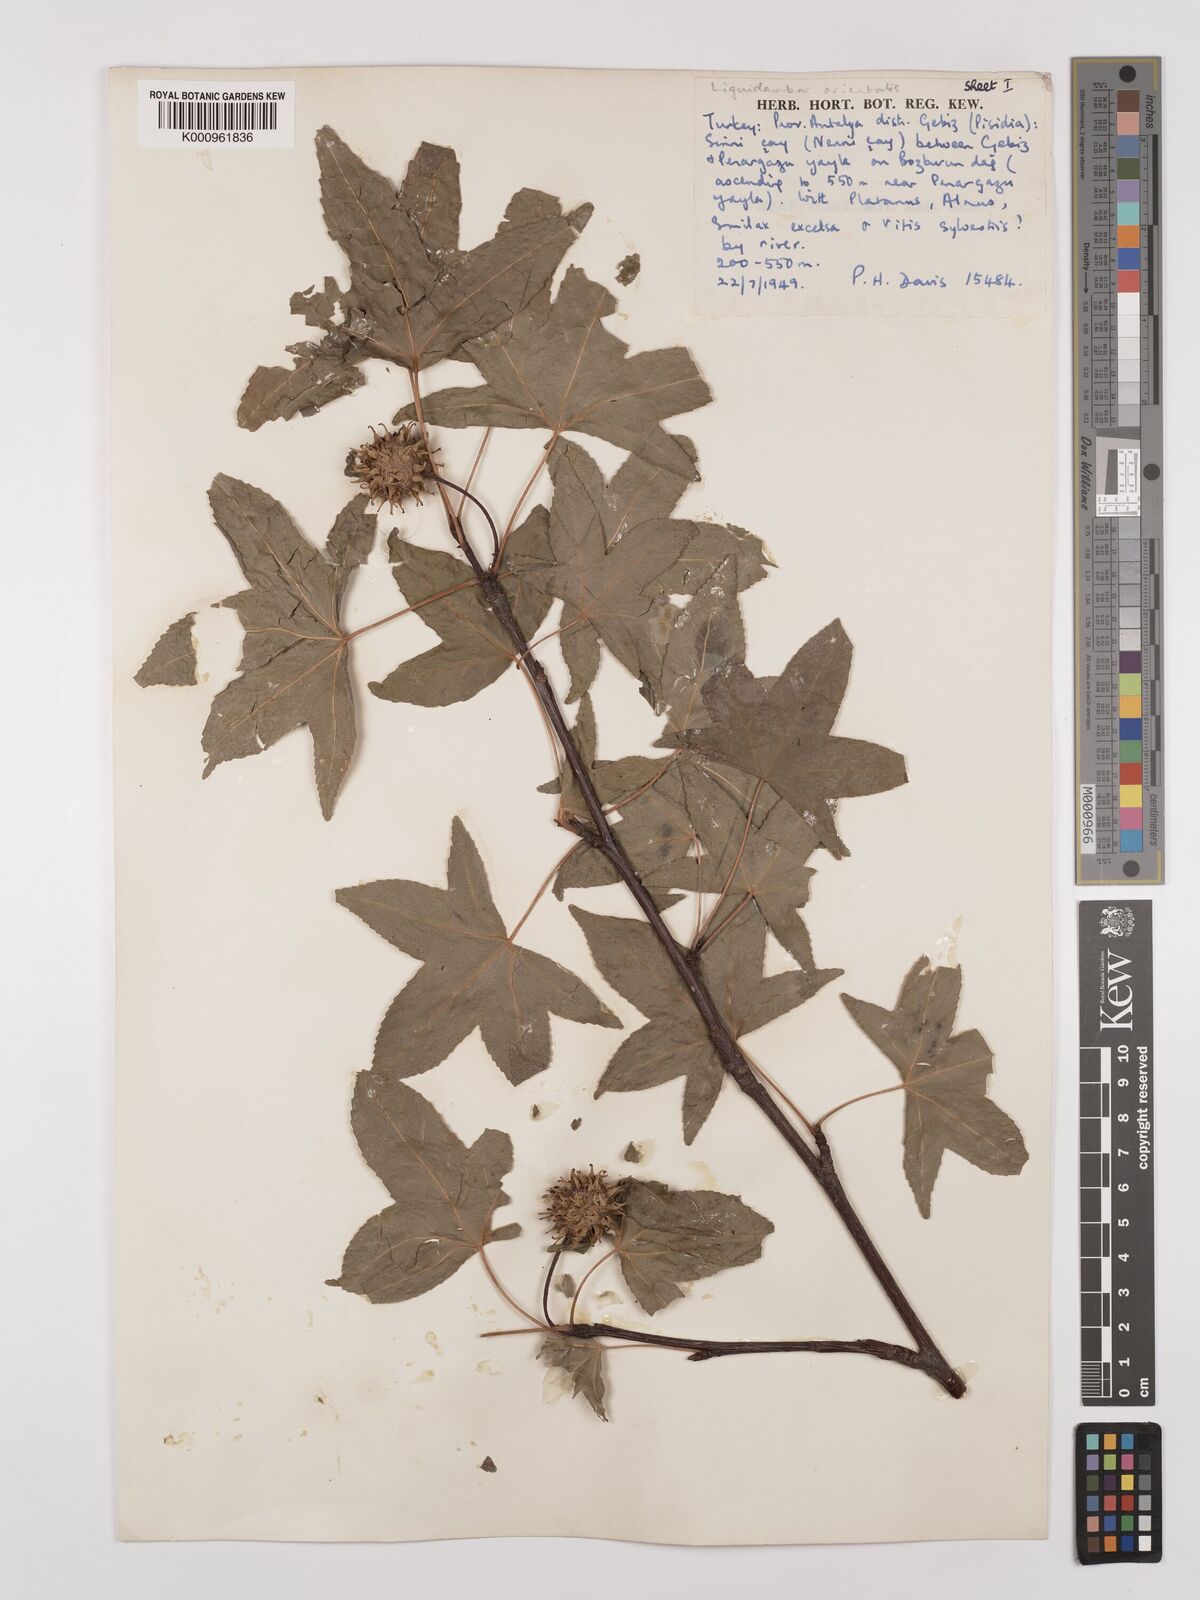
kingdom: Plantae
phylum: Tracheophyta
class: Magnoliopsida
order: Saxifragales
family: Altingiaceae
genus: Liquidambar
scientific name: Liquidambar orientalis
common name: Oriental sweetgum
